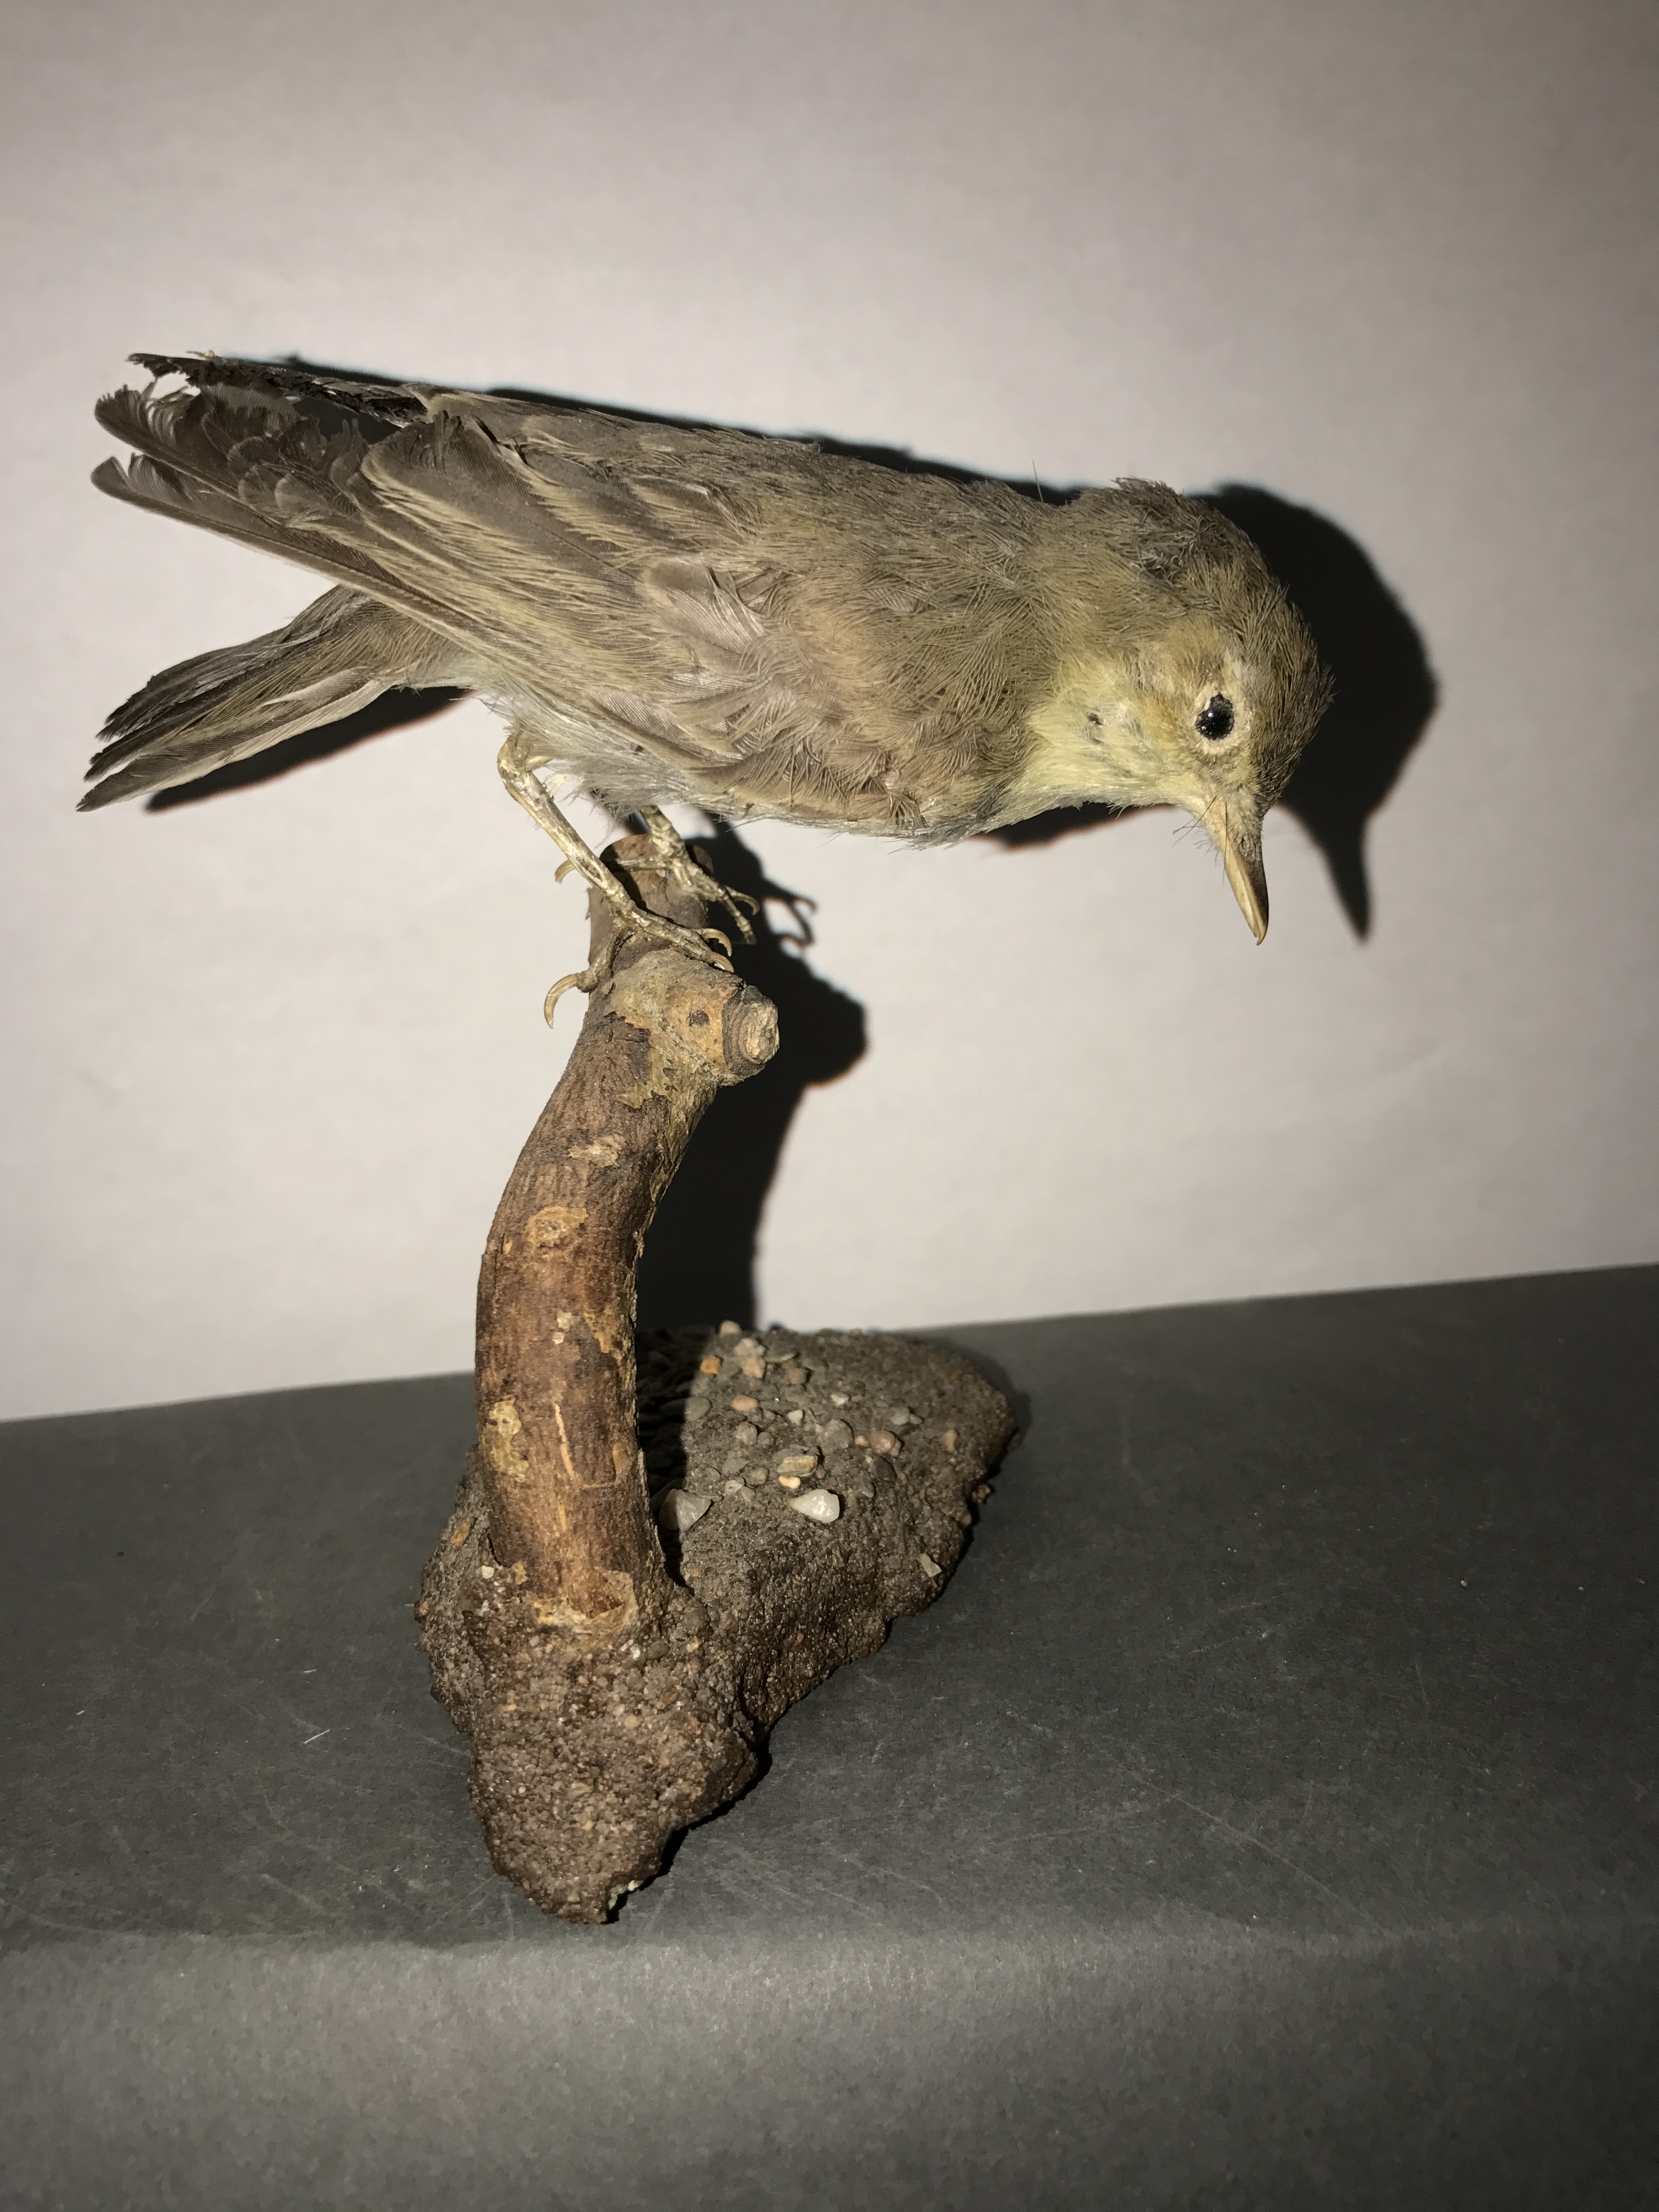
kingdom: Animalia
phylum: Chordata
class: Aves
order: Passeriformes
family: Acrocephalidae
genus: Hippolais
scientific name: Hippolais icterina
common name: Icterine warbler
